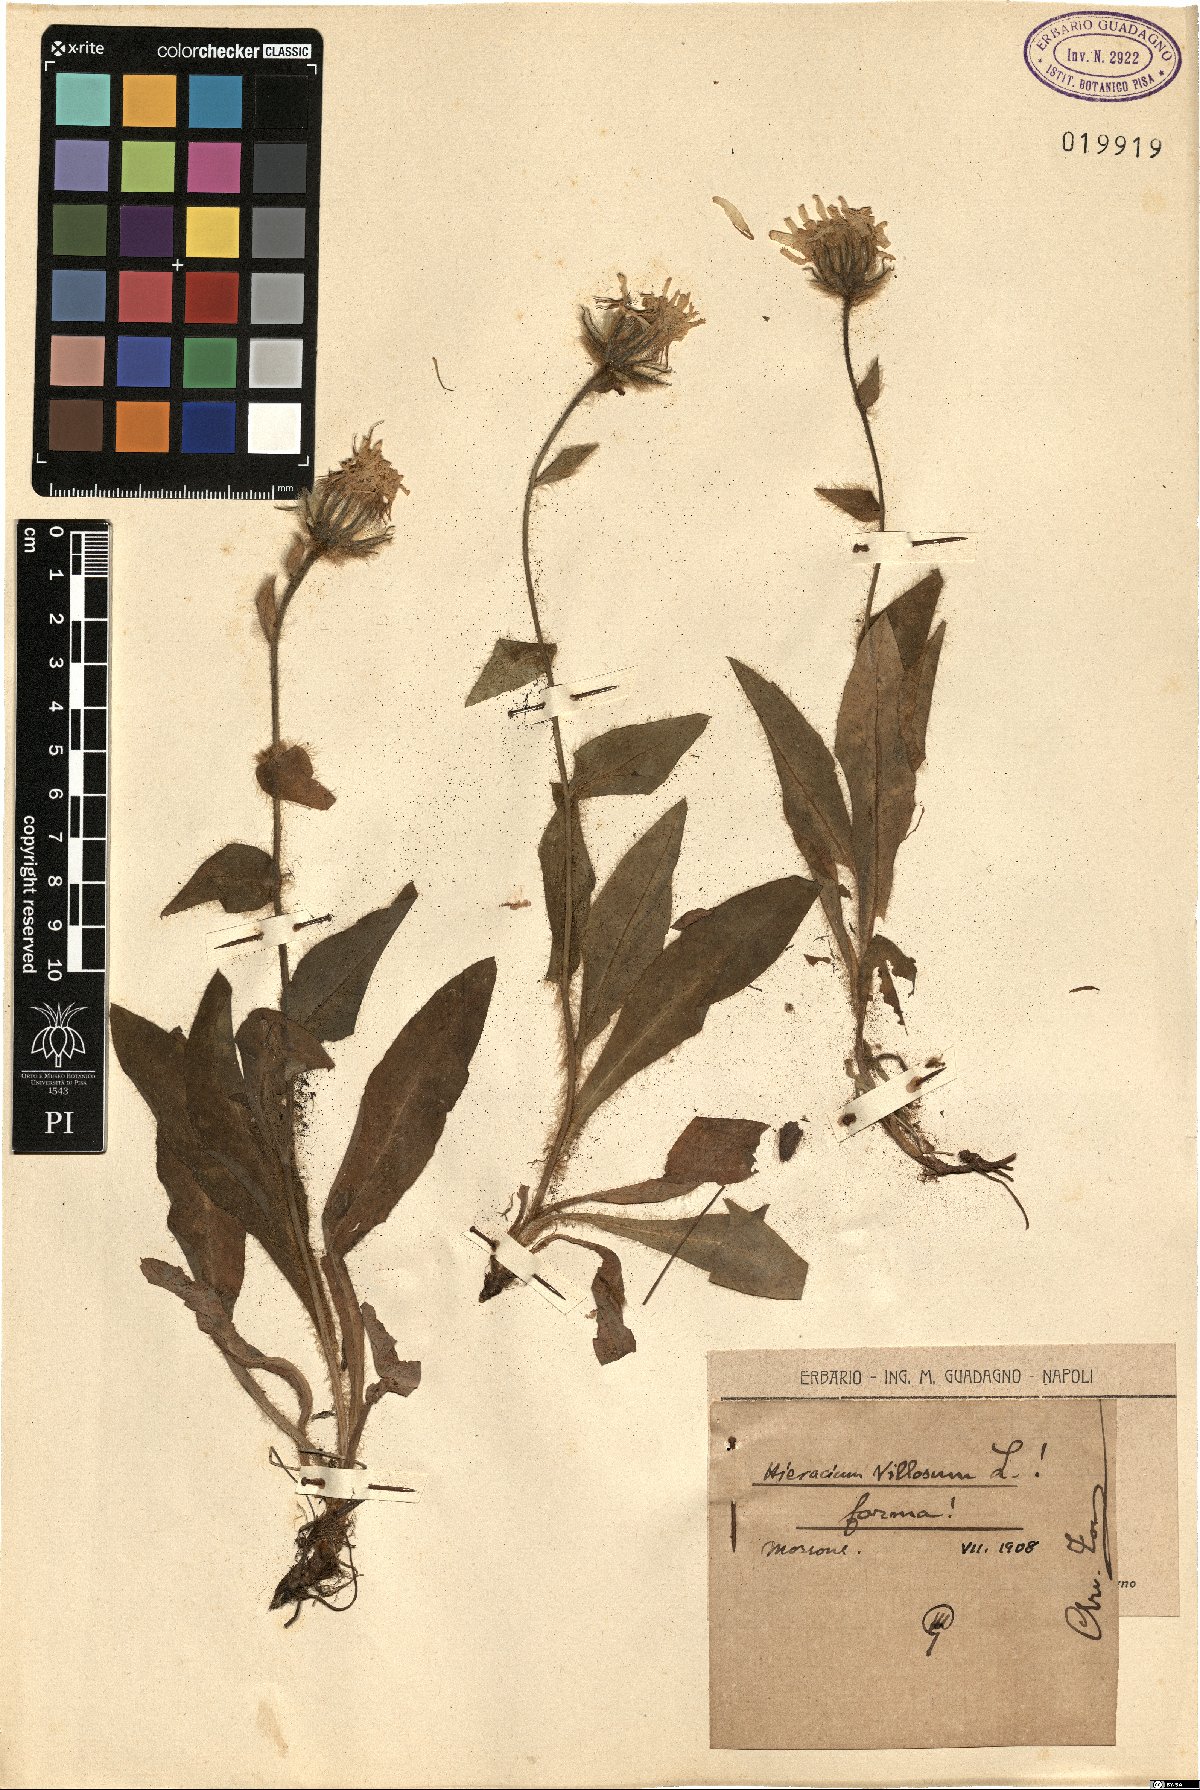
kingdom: Plantae
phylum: Tracheophyta
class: Magnoliopsida
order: Asterales
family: Asteraceae
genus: Hieracium
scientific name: Hieracium villosum
